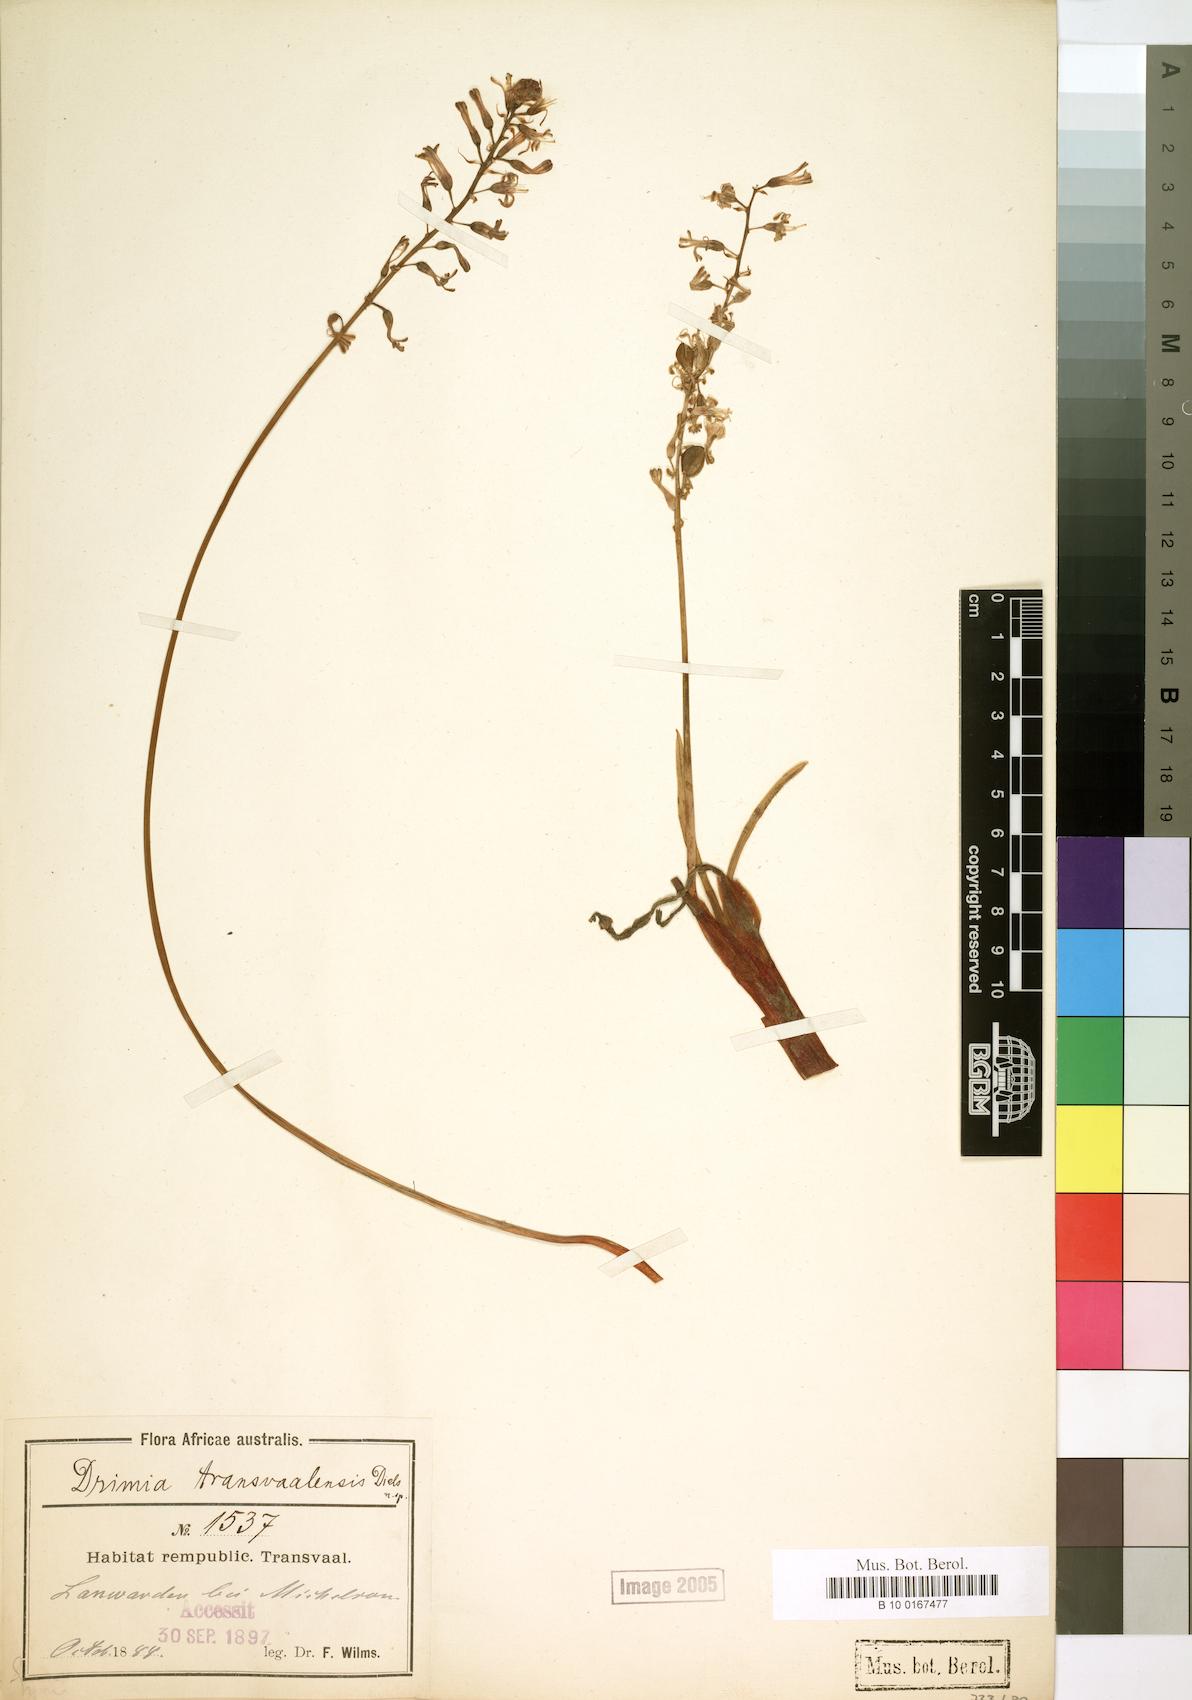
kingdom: Plantae
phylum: Tracheophyta
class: Liliopsida
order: Asparagales
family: Asparagaceae
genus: Drimia
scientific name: Drimia
